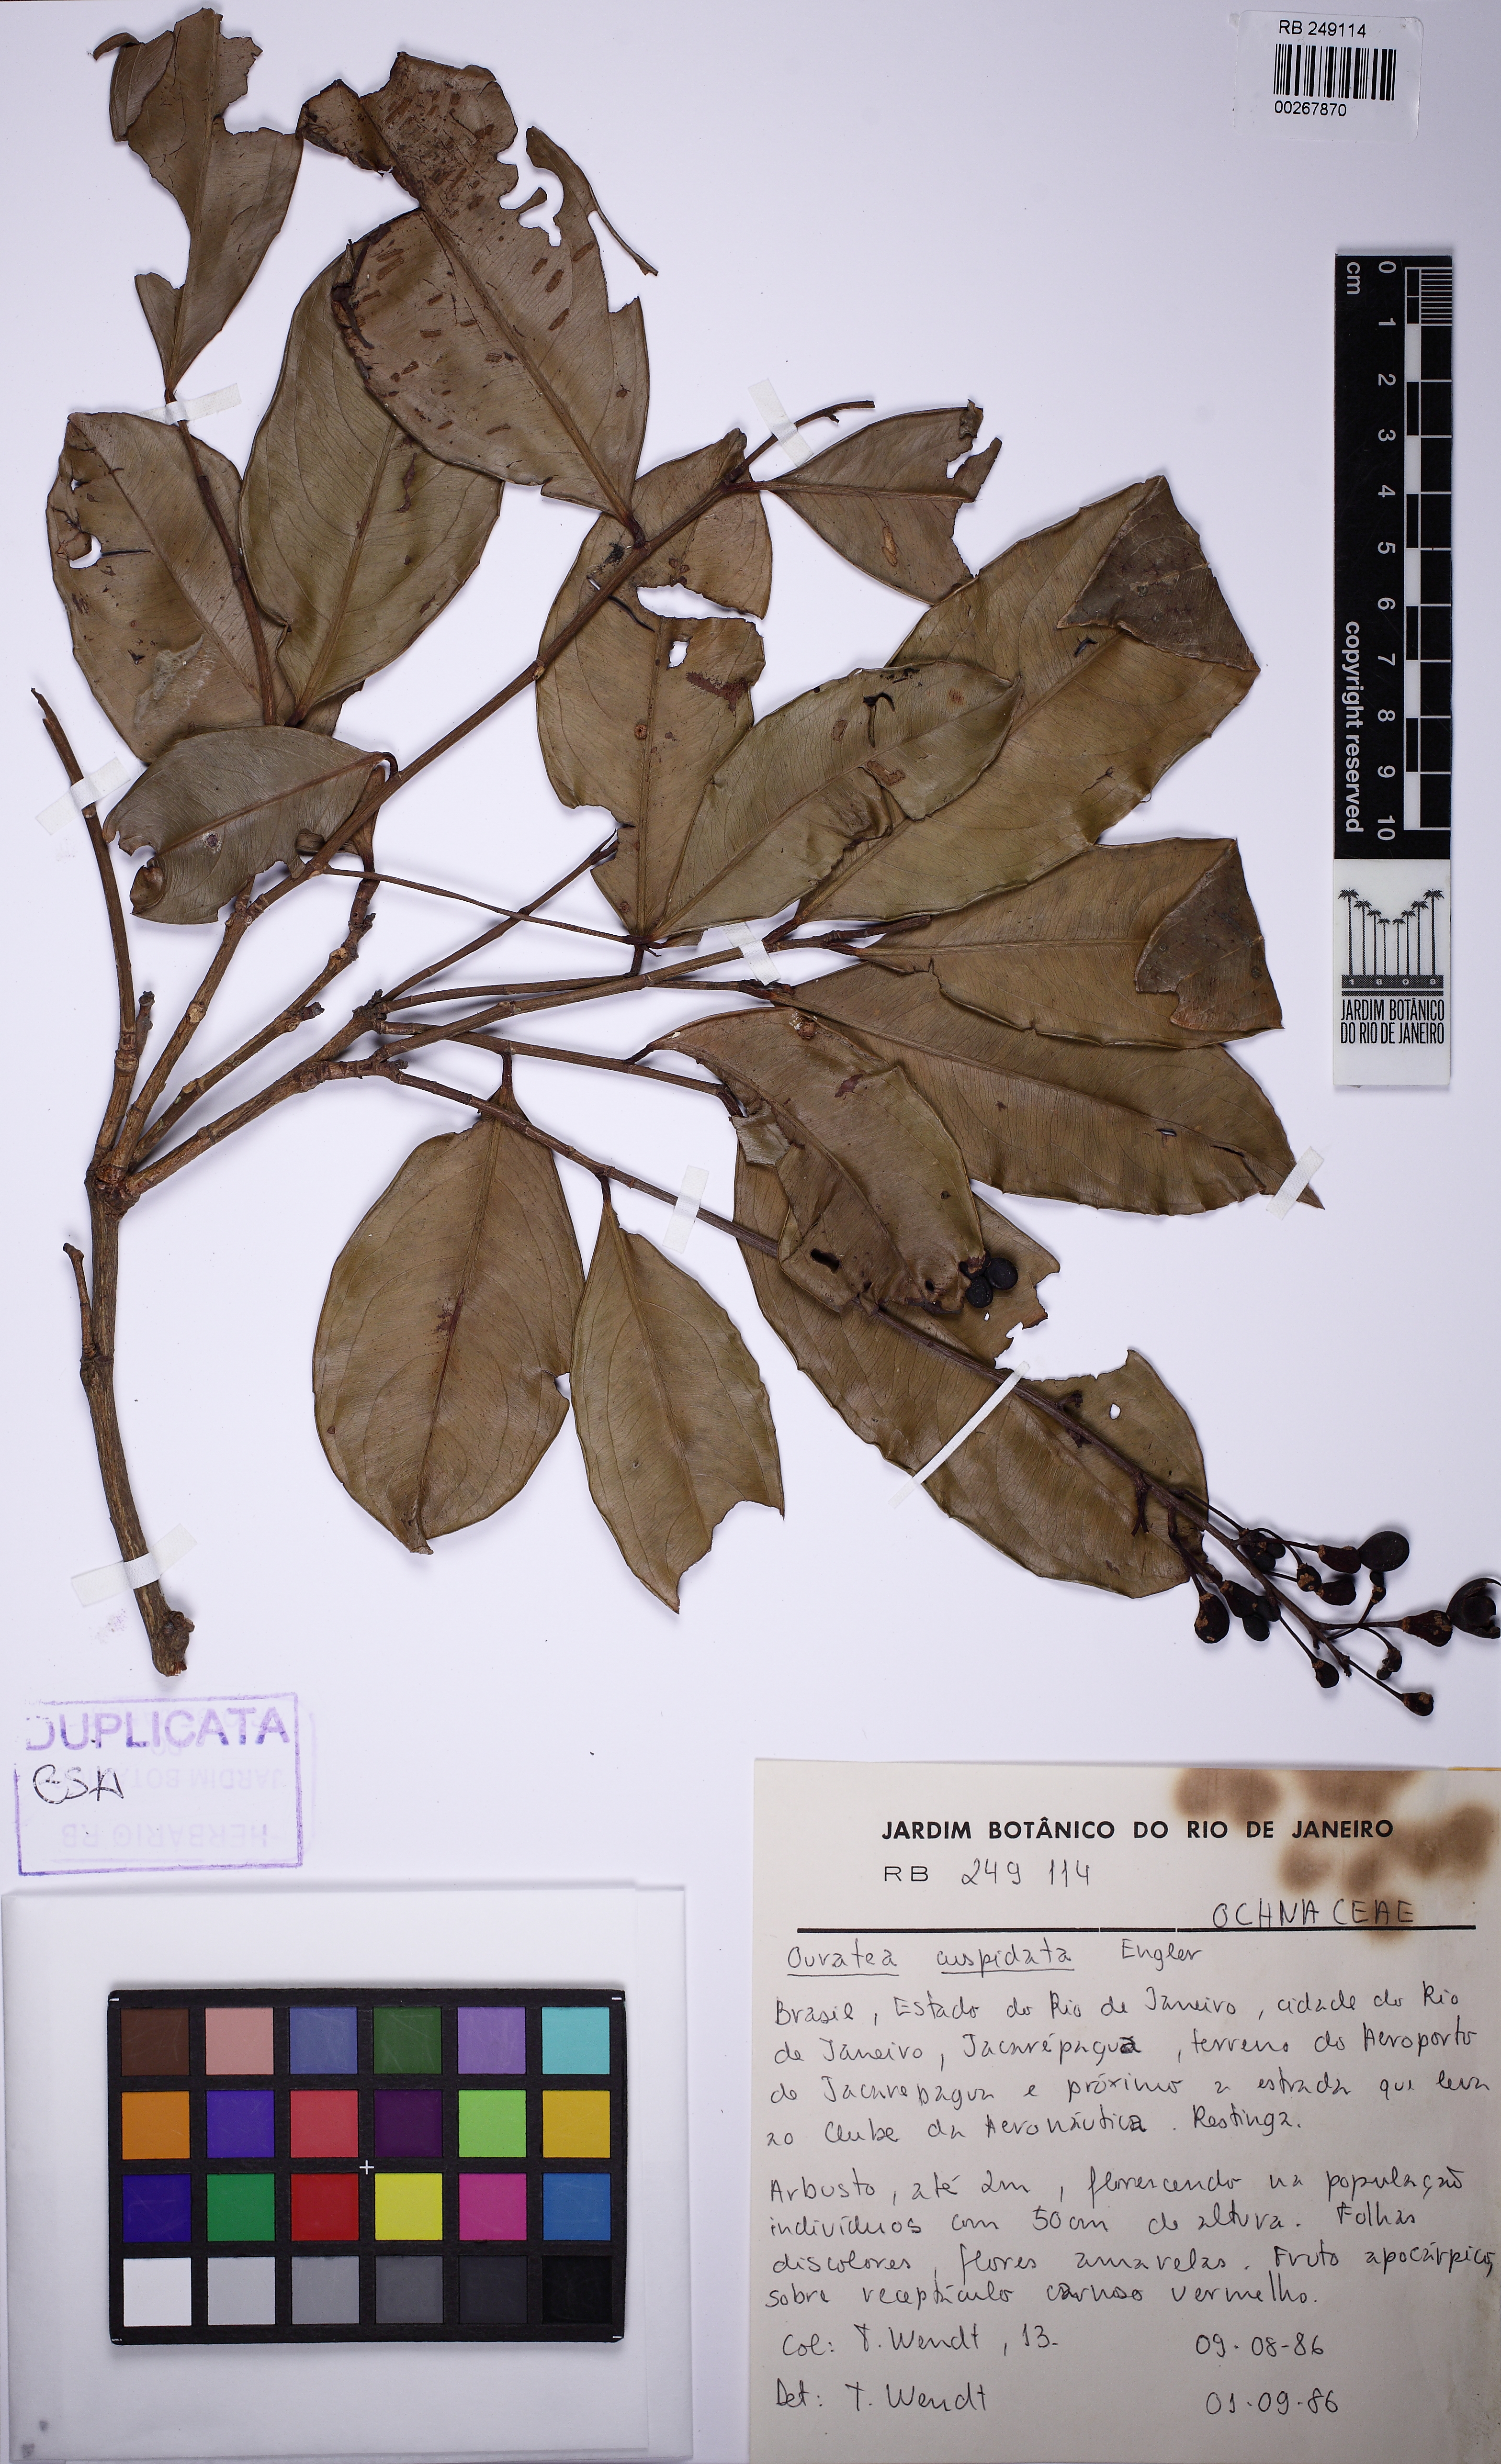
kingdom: Plantae
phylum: Tracheophyta
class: Magnoliopsida
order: Malpighiales
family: Ochnaceae
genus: Ouratea
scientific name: Ouratea cuspidata
